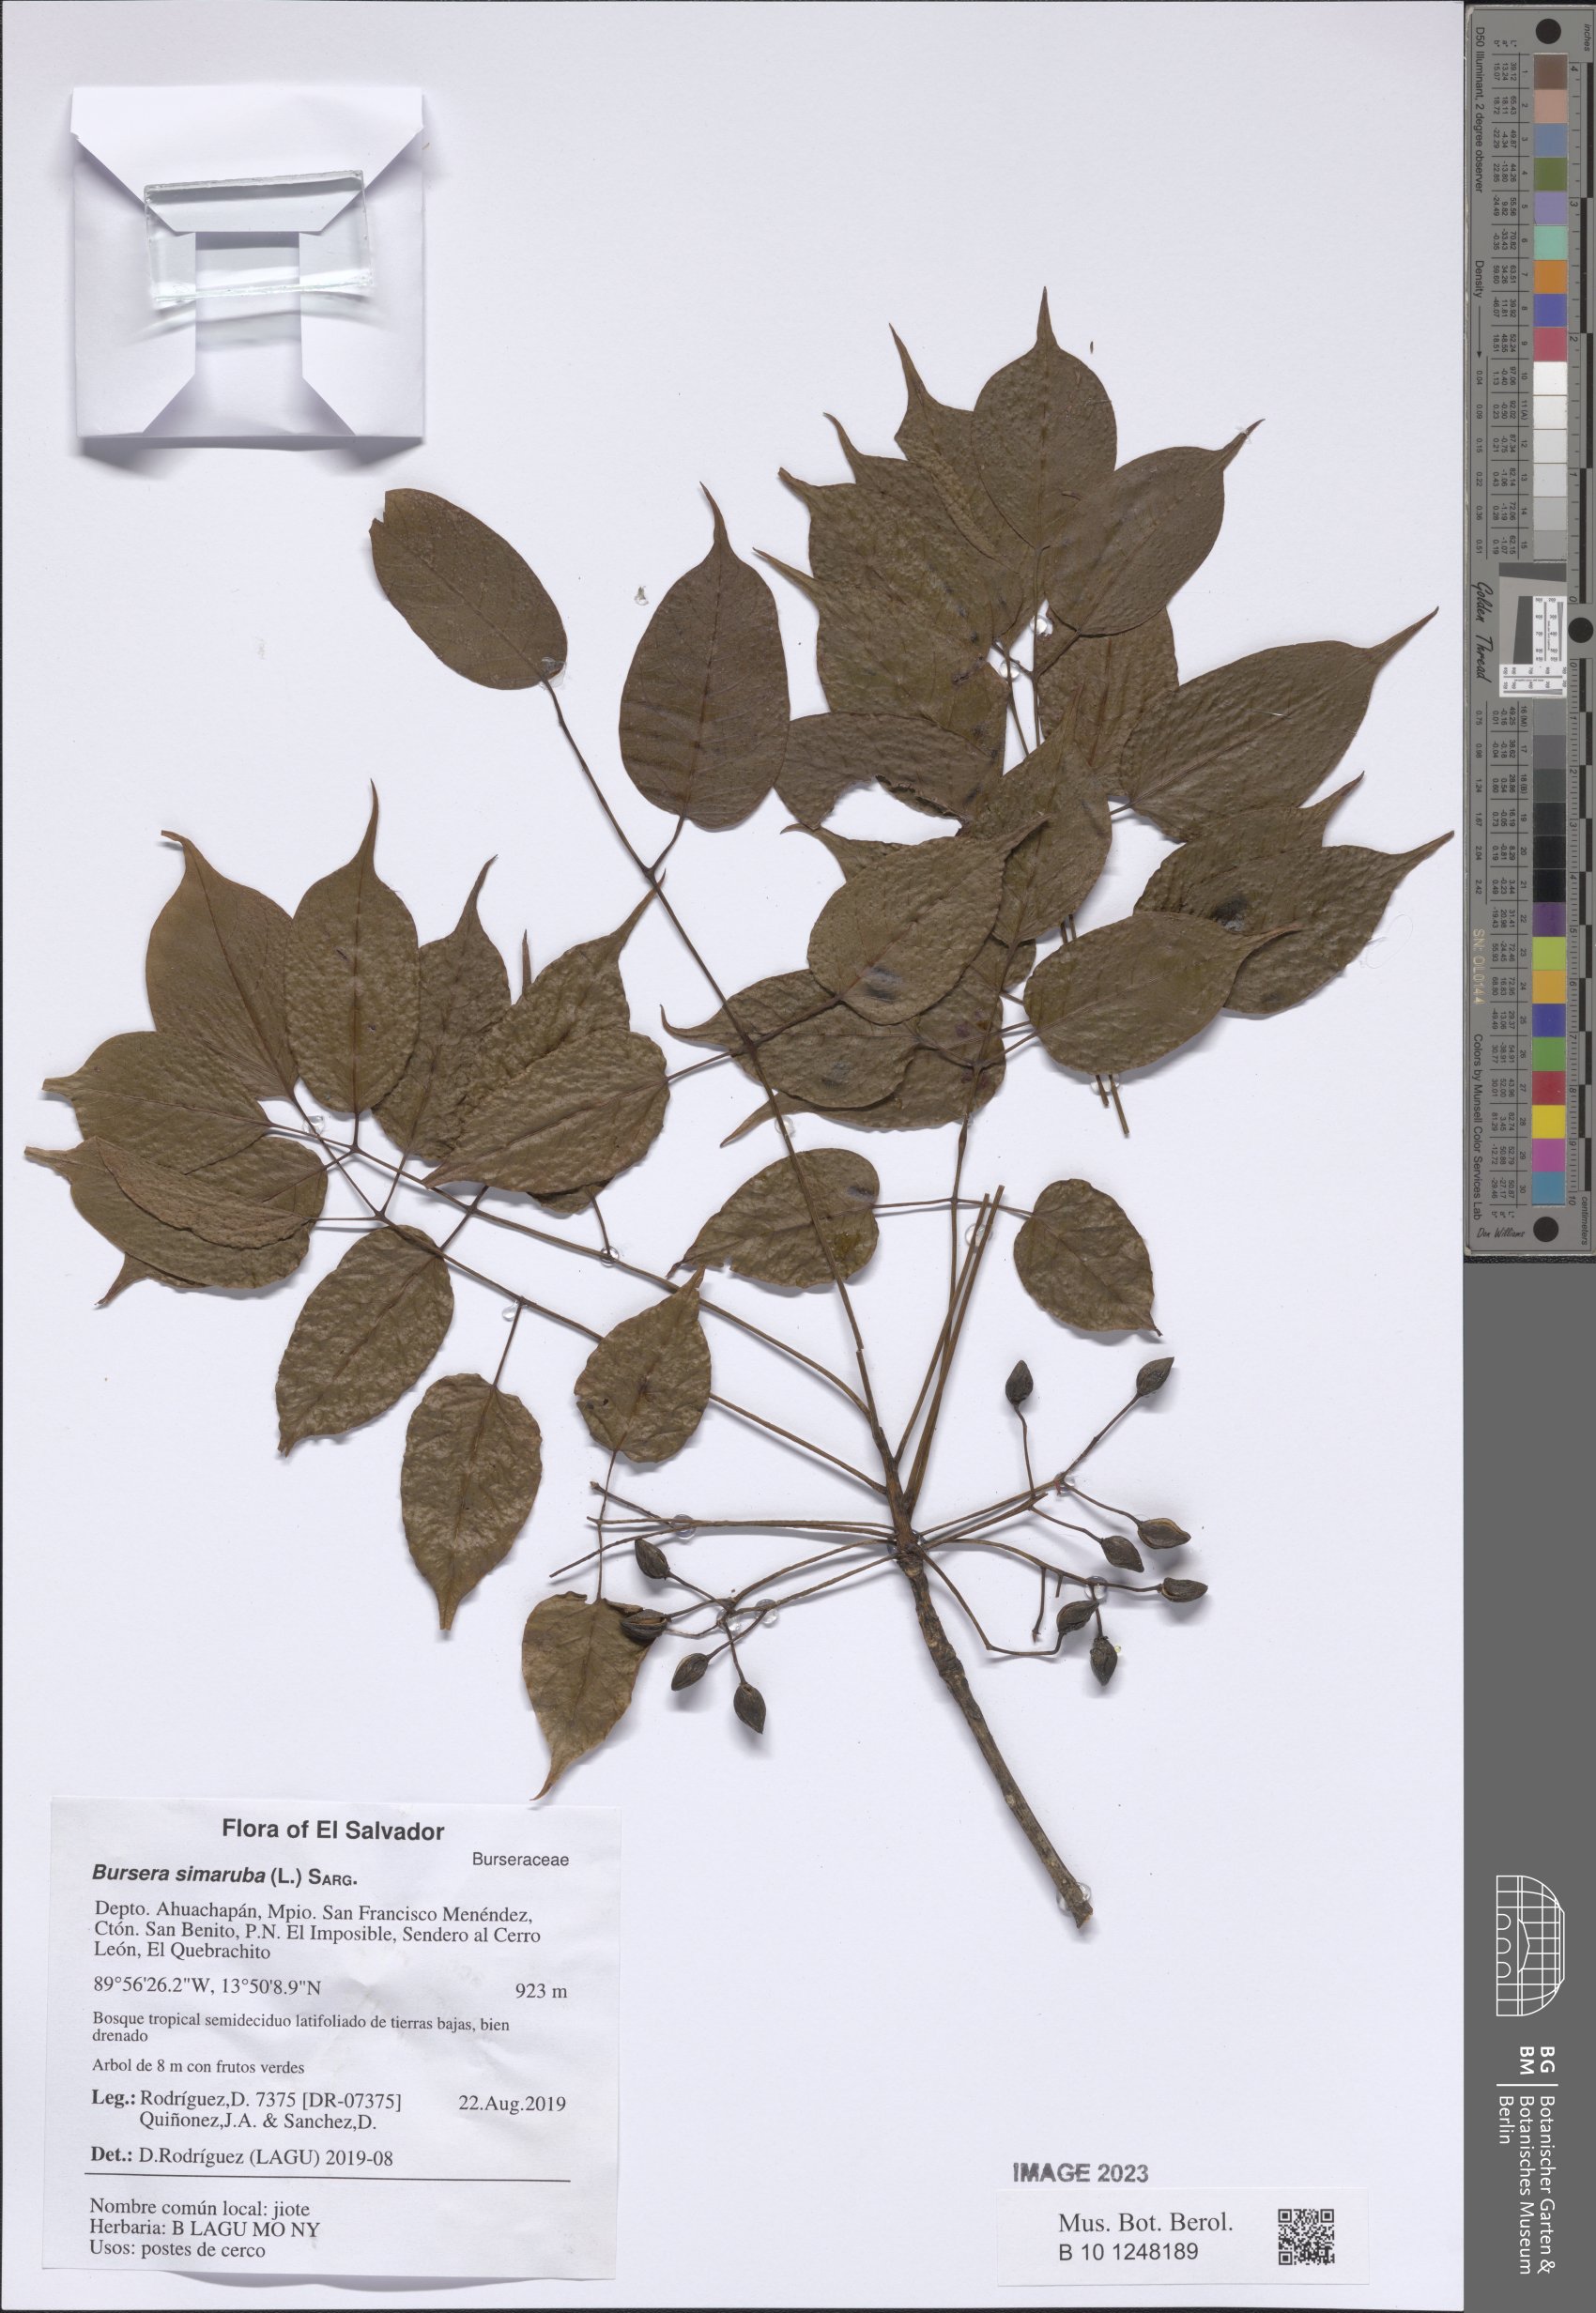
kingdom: Plantae
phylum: Tracheophyta
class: Magnoliopsida
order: Sapindales
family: Burseraceae
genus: Bursera
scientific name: Bursera simaruba
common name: Turpentine tree
